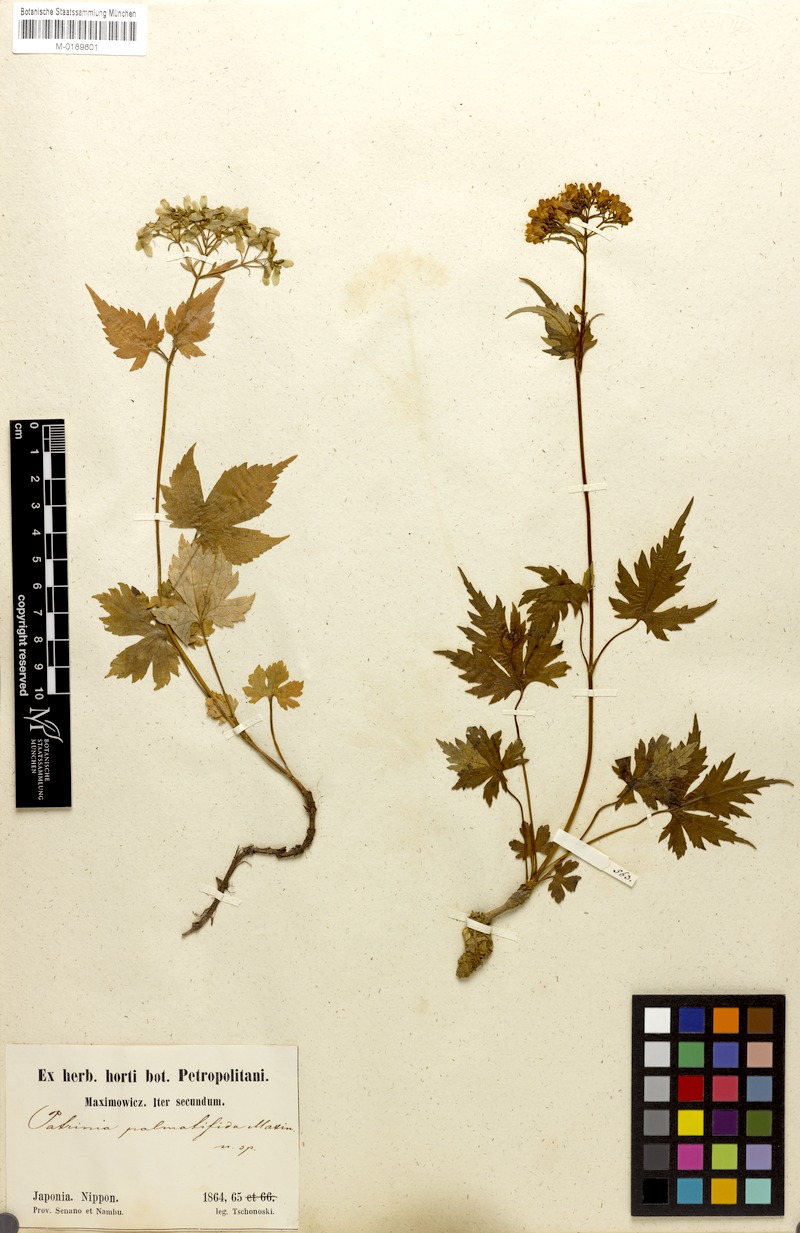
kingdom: Plantae
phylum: Tracheophyta
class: Magnoliopsida
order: Dipsacales
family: Caprifoliaceae
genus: Patrinia
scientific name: Patrinia triloba
